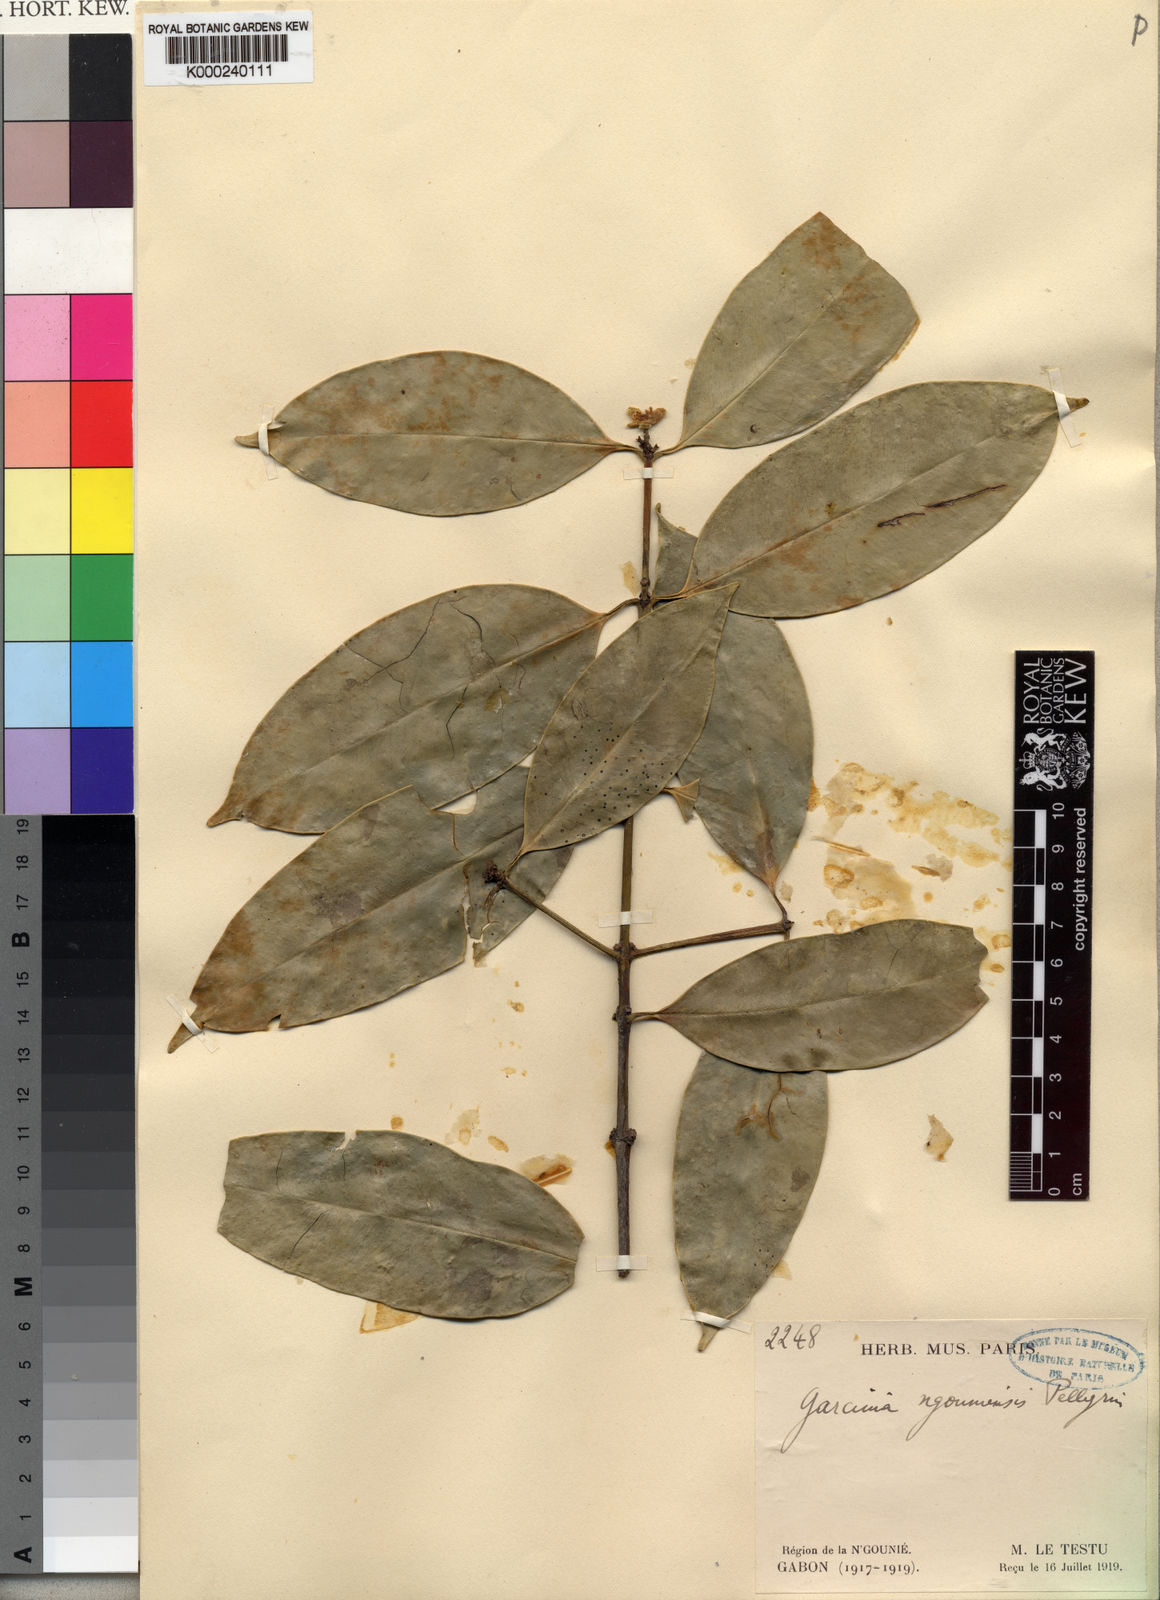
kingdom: Plantae
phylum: Tracheophyta
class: Magnoliopsida
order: Malpighiales
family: Clusiaceae
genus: Garcinia
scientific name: Garcinia preussii
